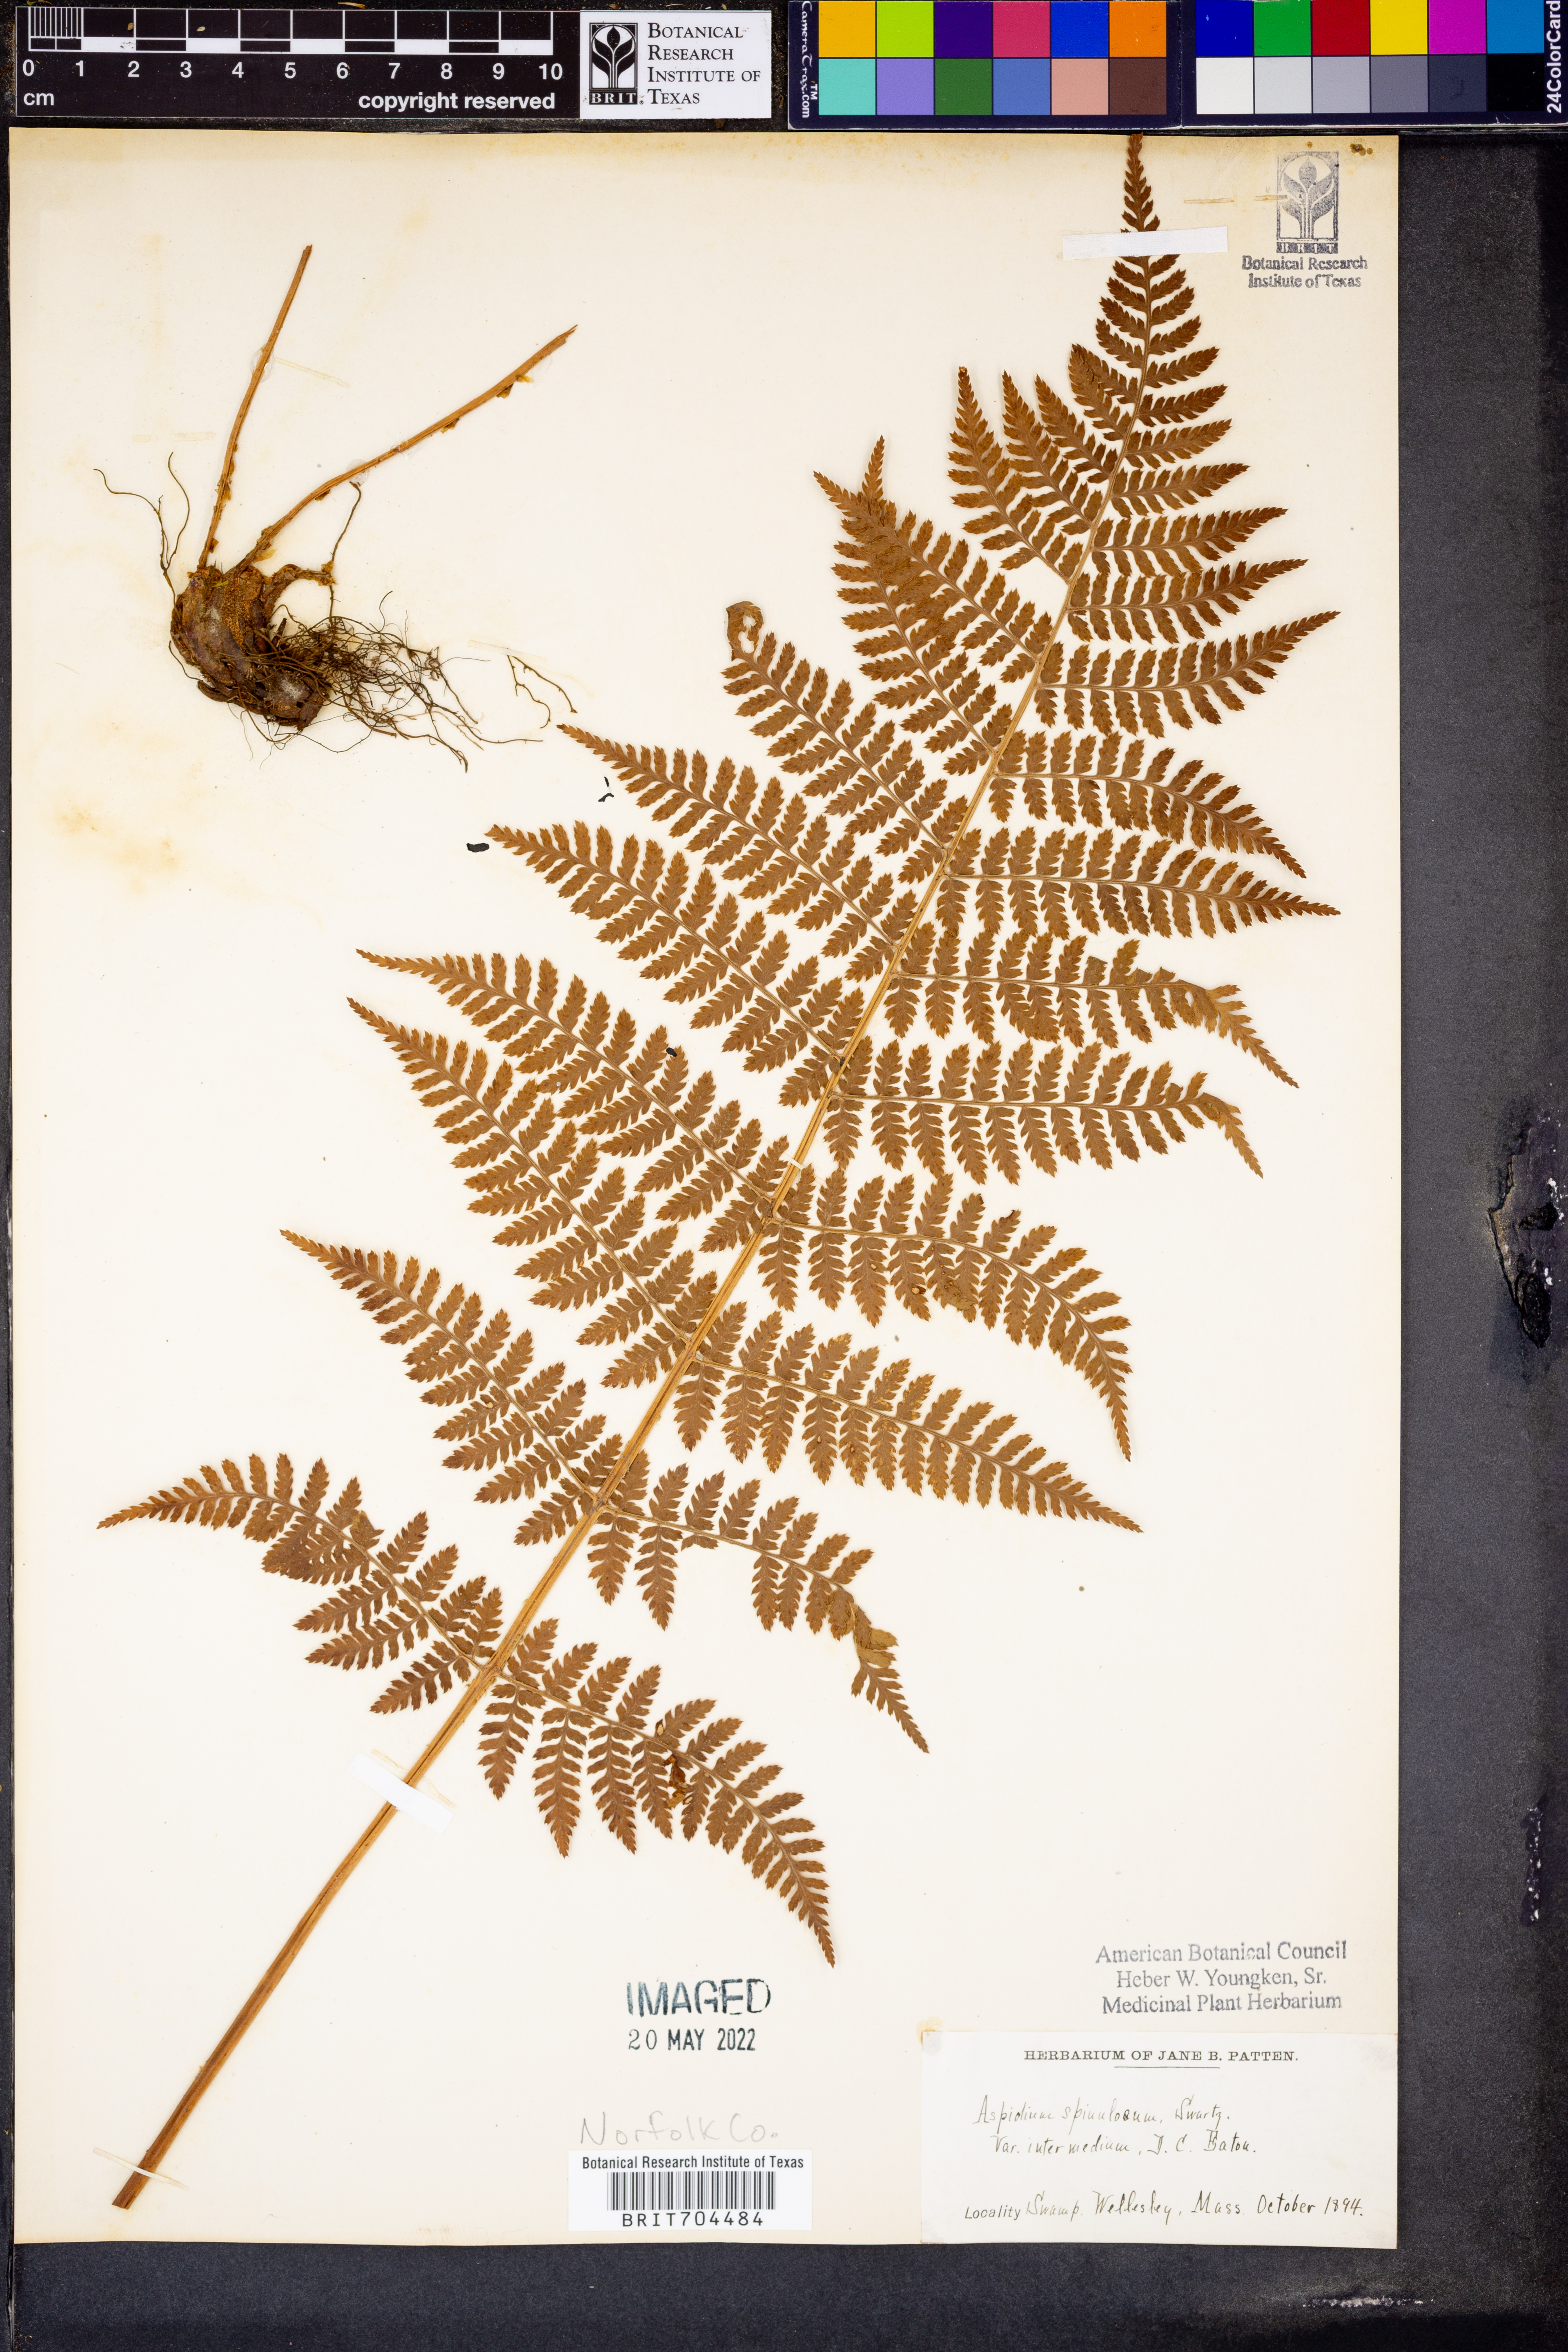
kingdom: Plantae
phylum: Tracheophyta
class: Polypodiopsida
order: Polypodiales
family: Dryopteridaceae
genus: Dryopteris
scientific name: Dryopteris
